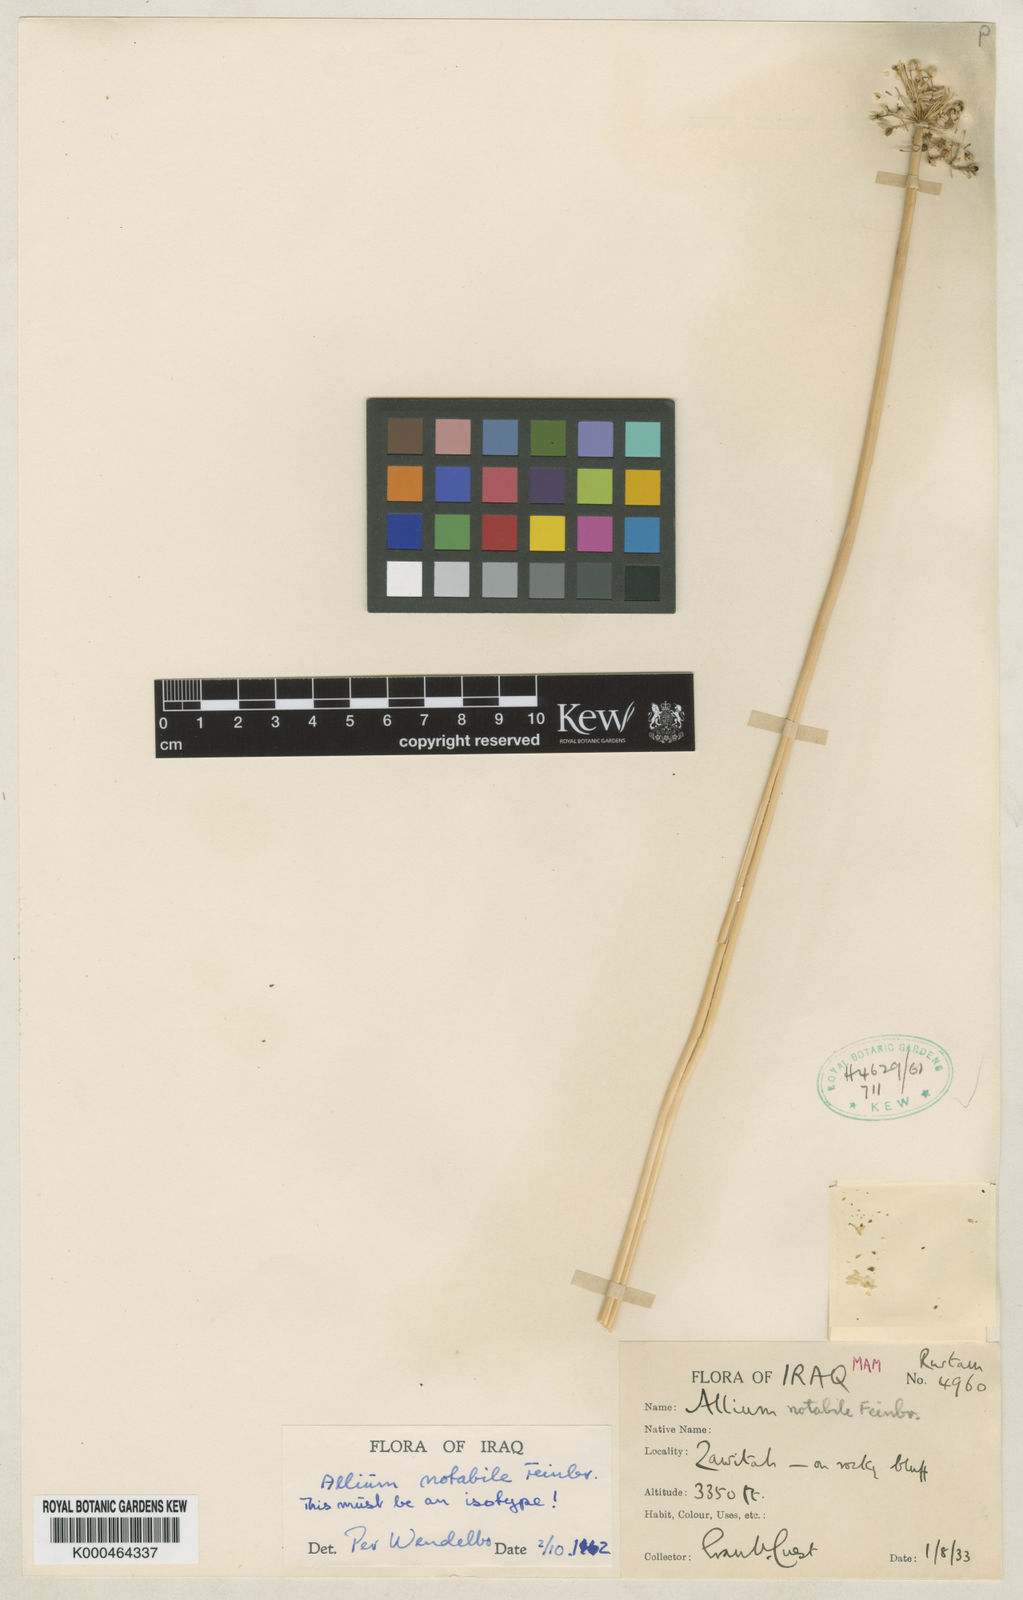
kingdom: Plantae
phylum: Tracheophyta
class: Liliopsida
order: Asparagales
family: Amaryllidaceae
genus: Allium
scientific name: Allium notabile
